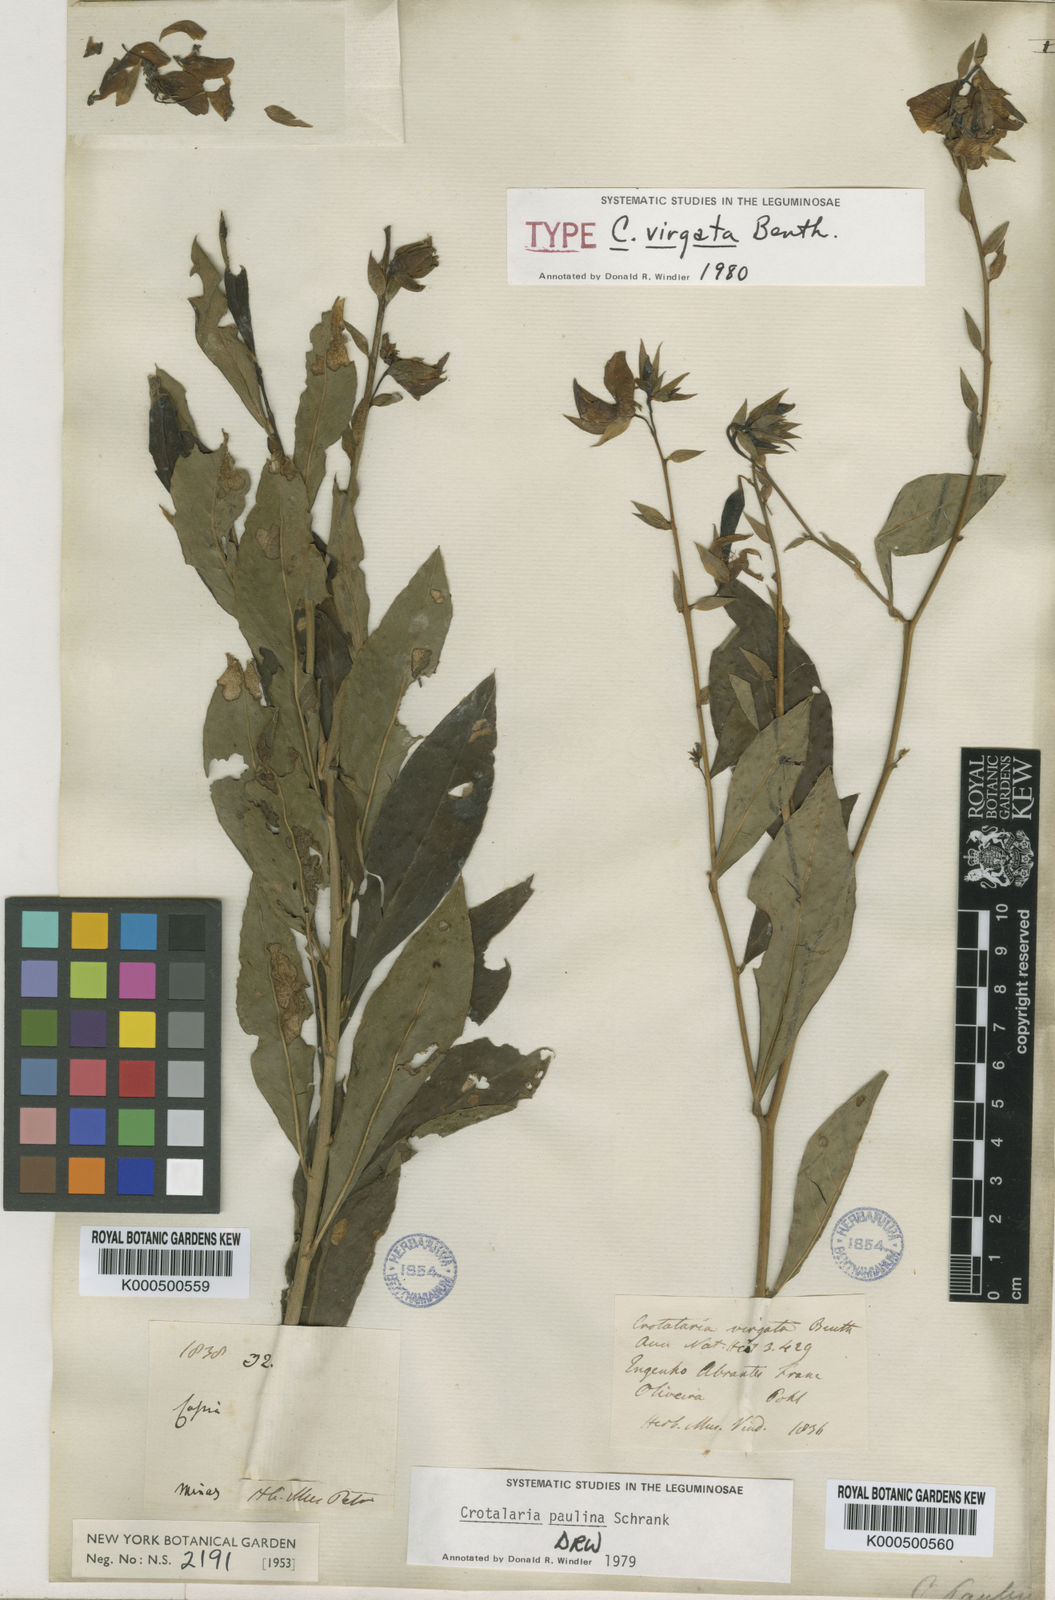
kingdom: Plantae
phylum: Tracheophyta
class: Magnoliopsida
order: Fabales
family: Fabaceae
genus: Crotalaria
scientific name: Crotalaria paulina
